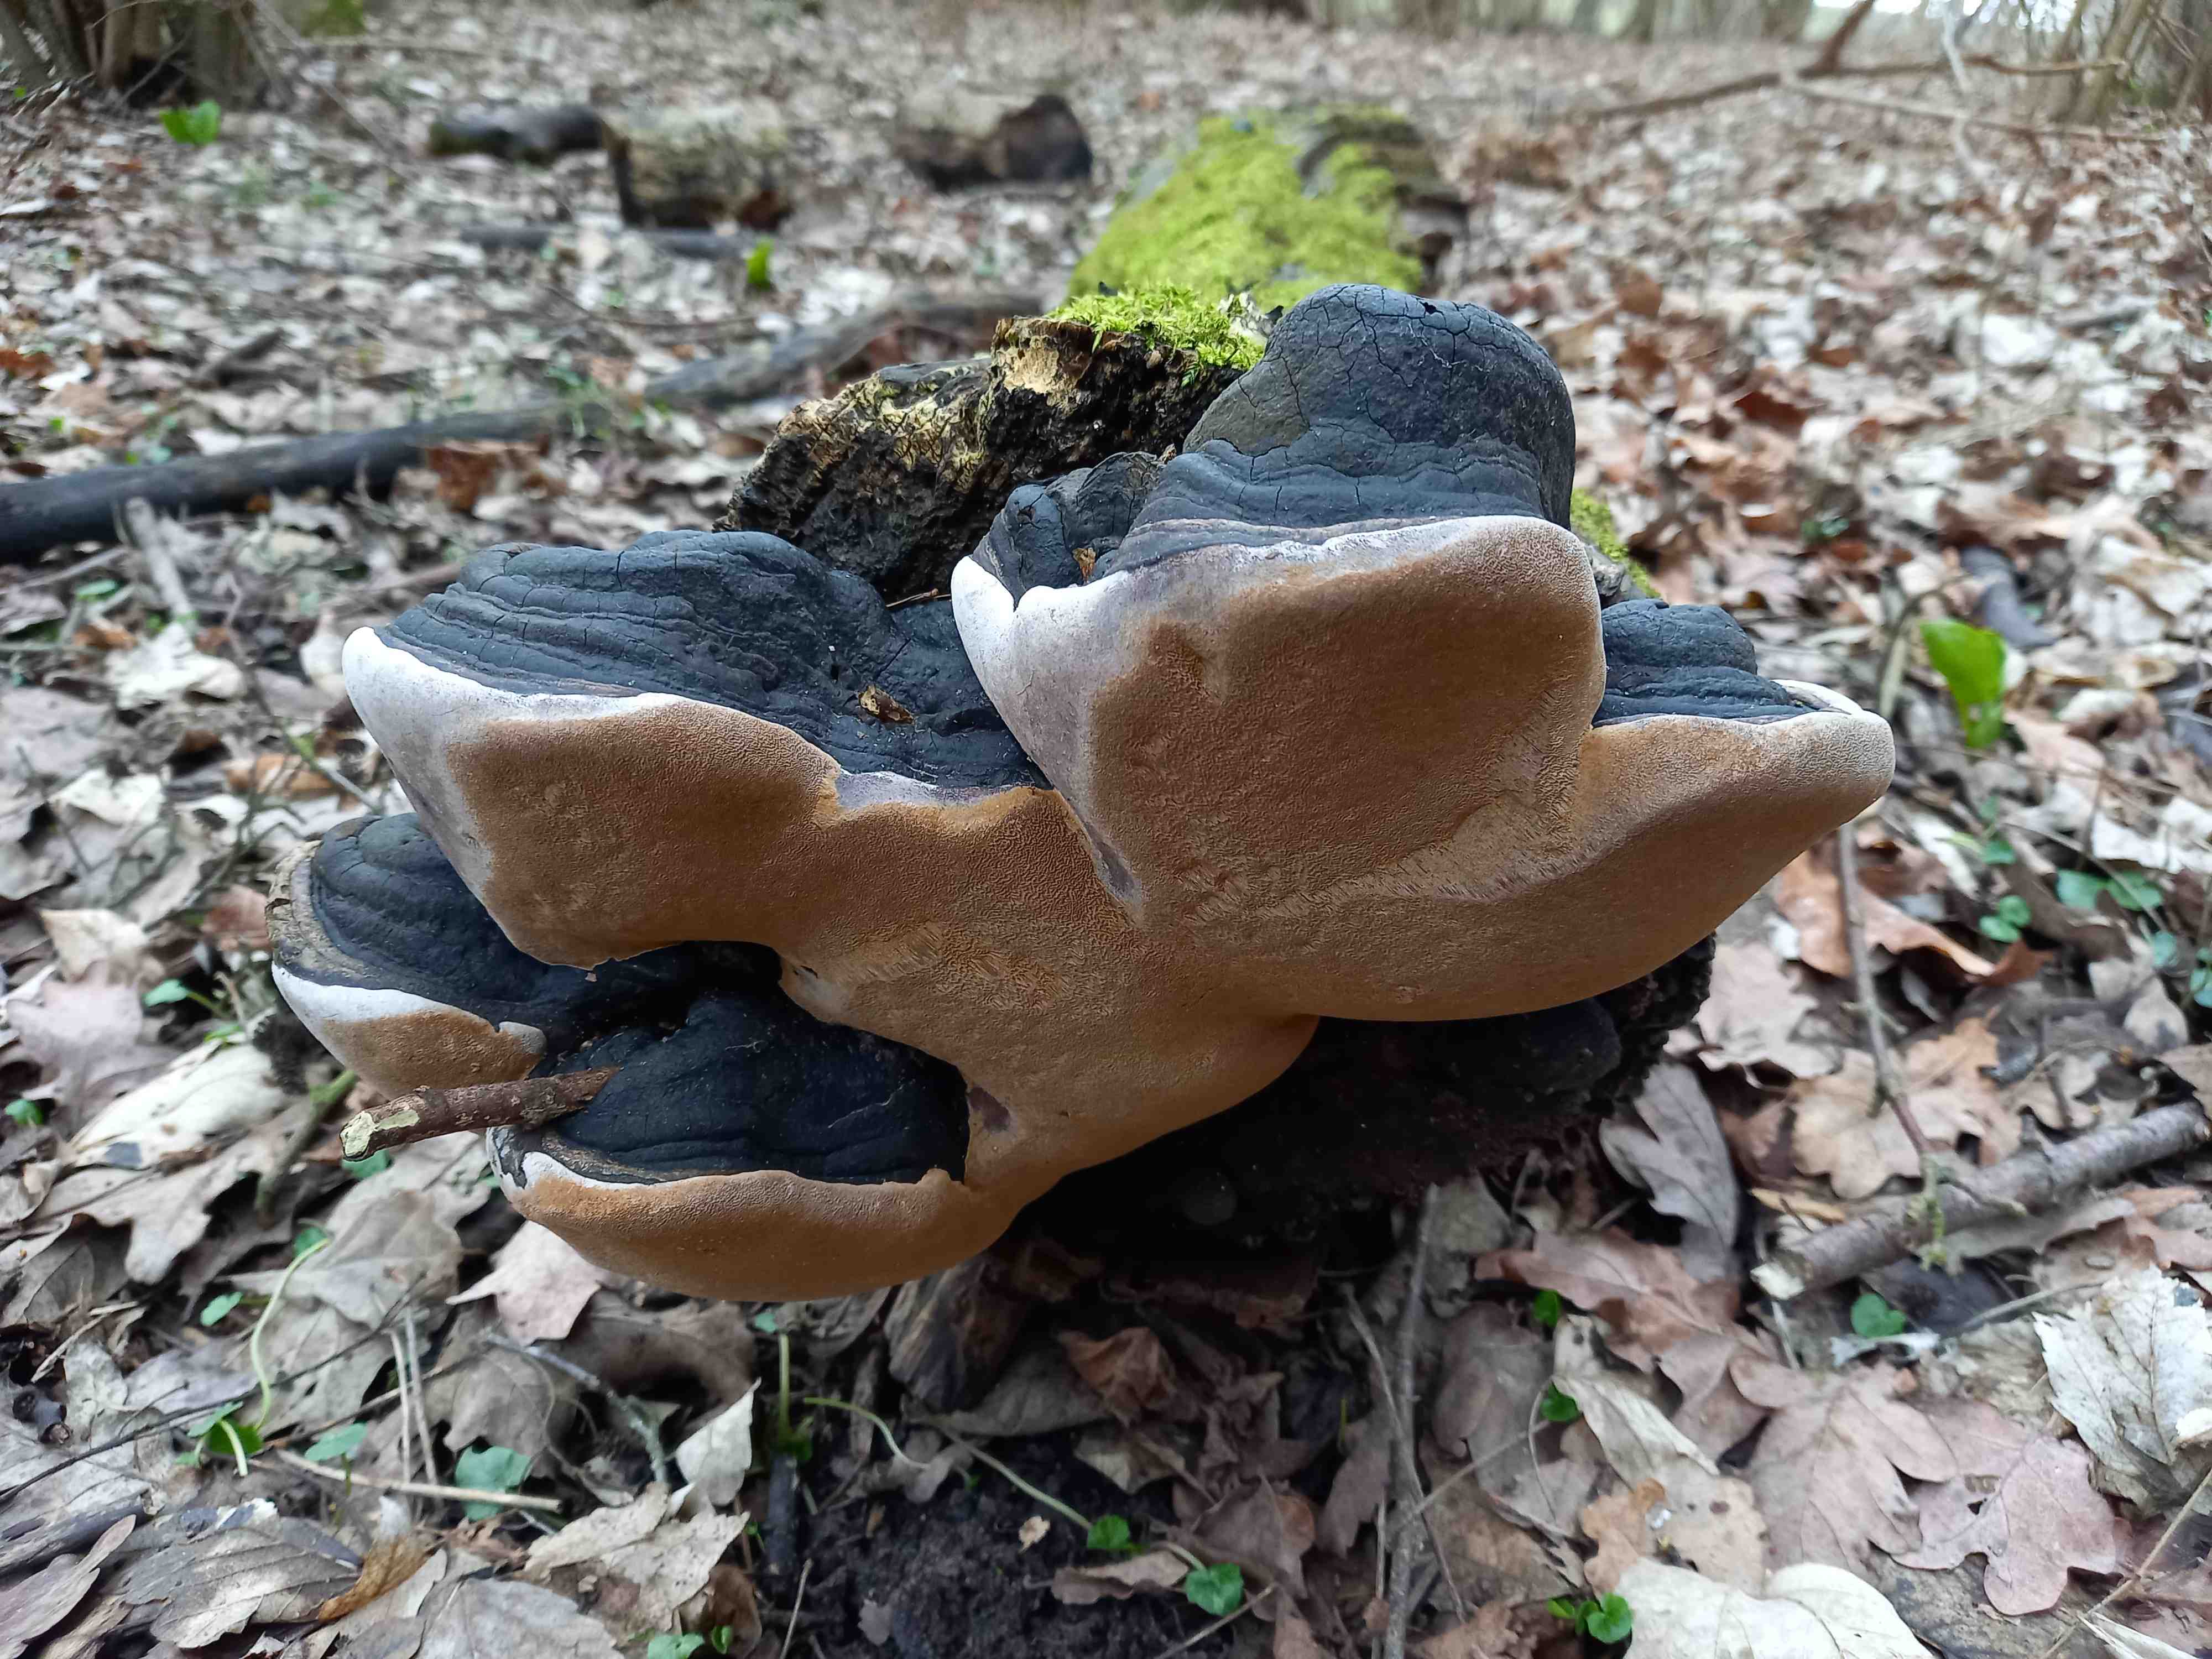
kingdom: Fungi
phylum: Basidiomycota
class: Agaricomycetes
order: Hymenochaetales
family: Hymenochaetaceae
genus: Phellinus
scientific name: Phellinus igniarius
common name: almindelig ildporesvamp
